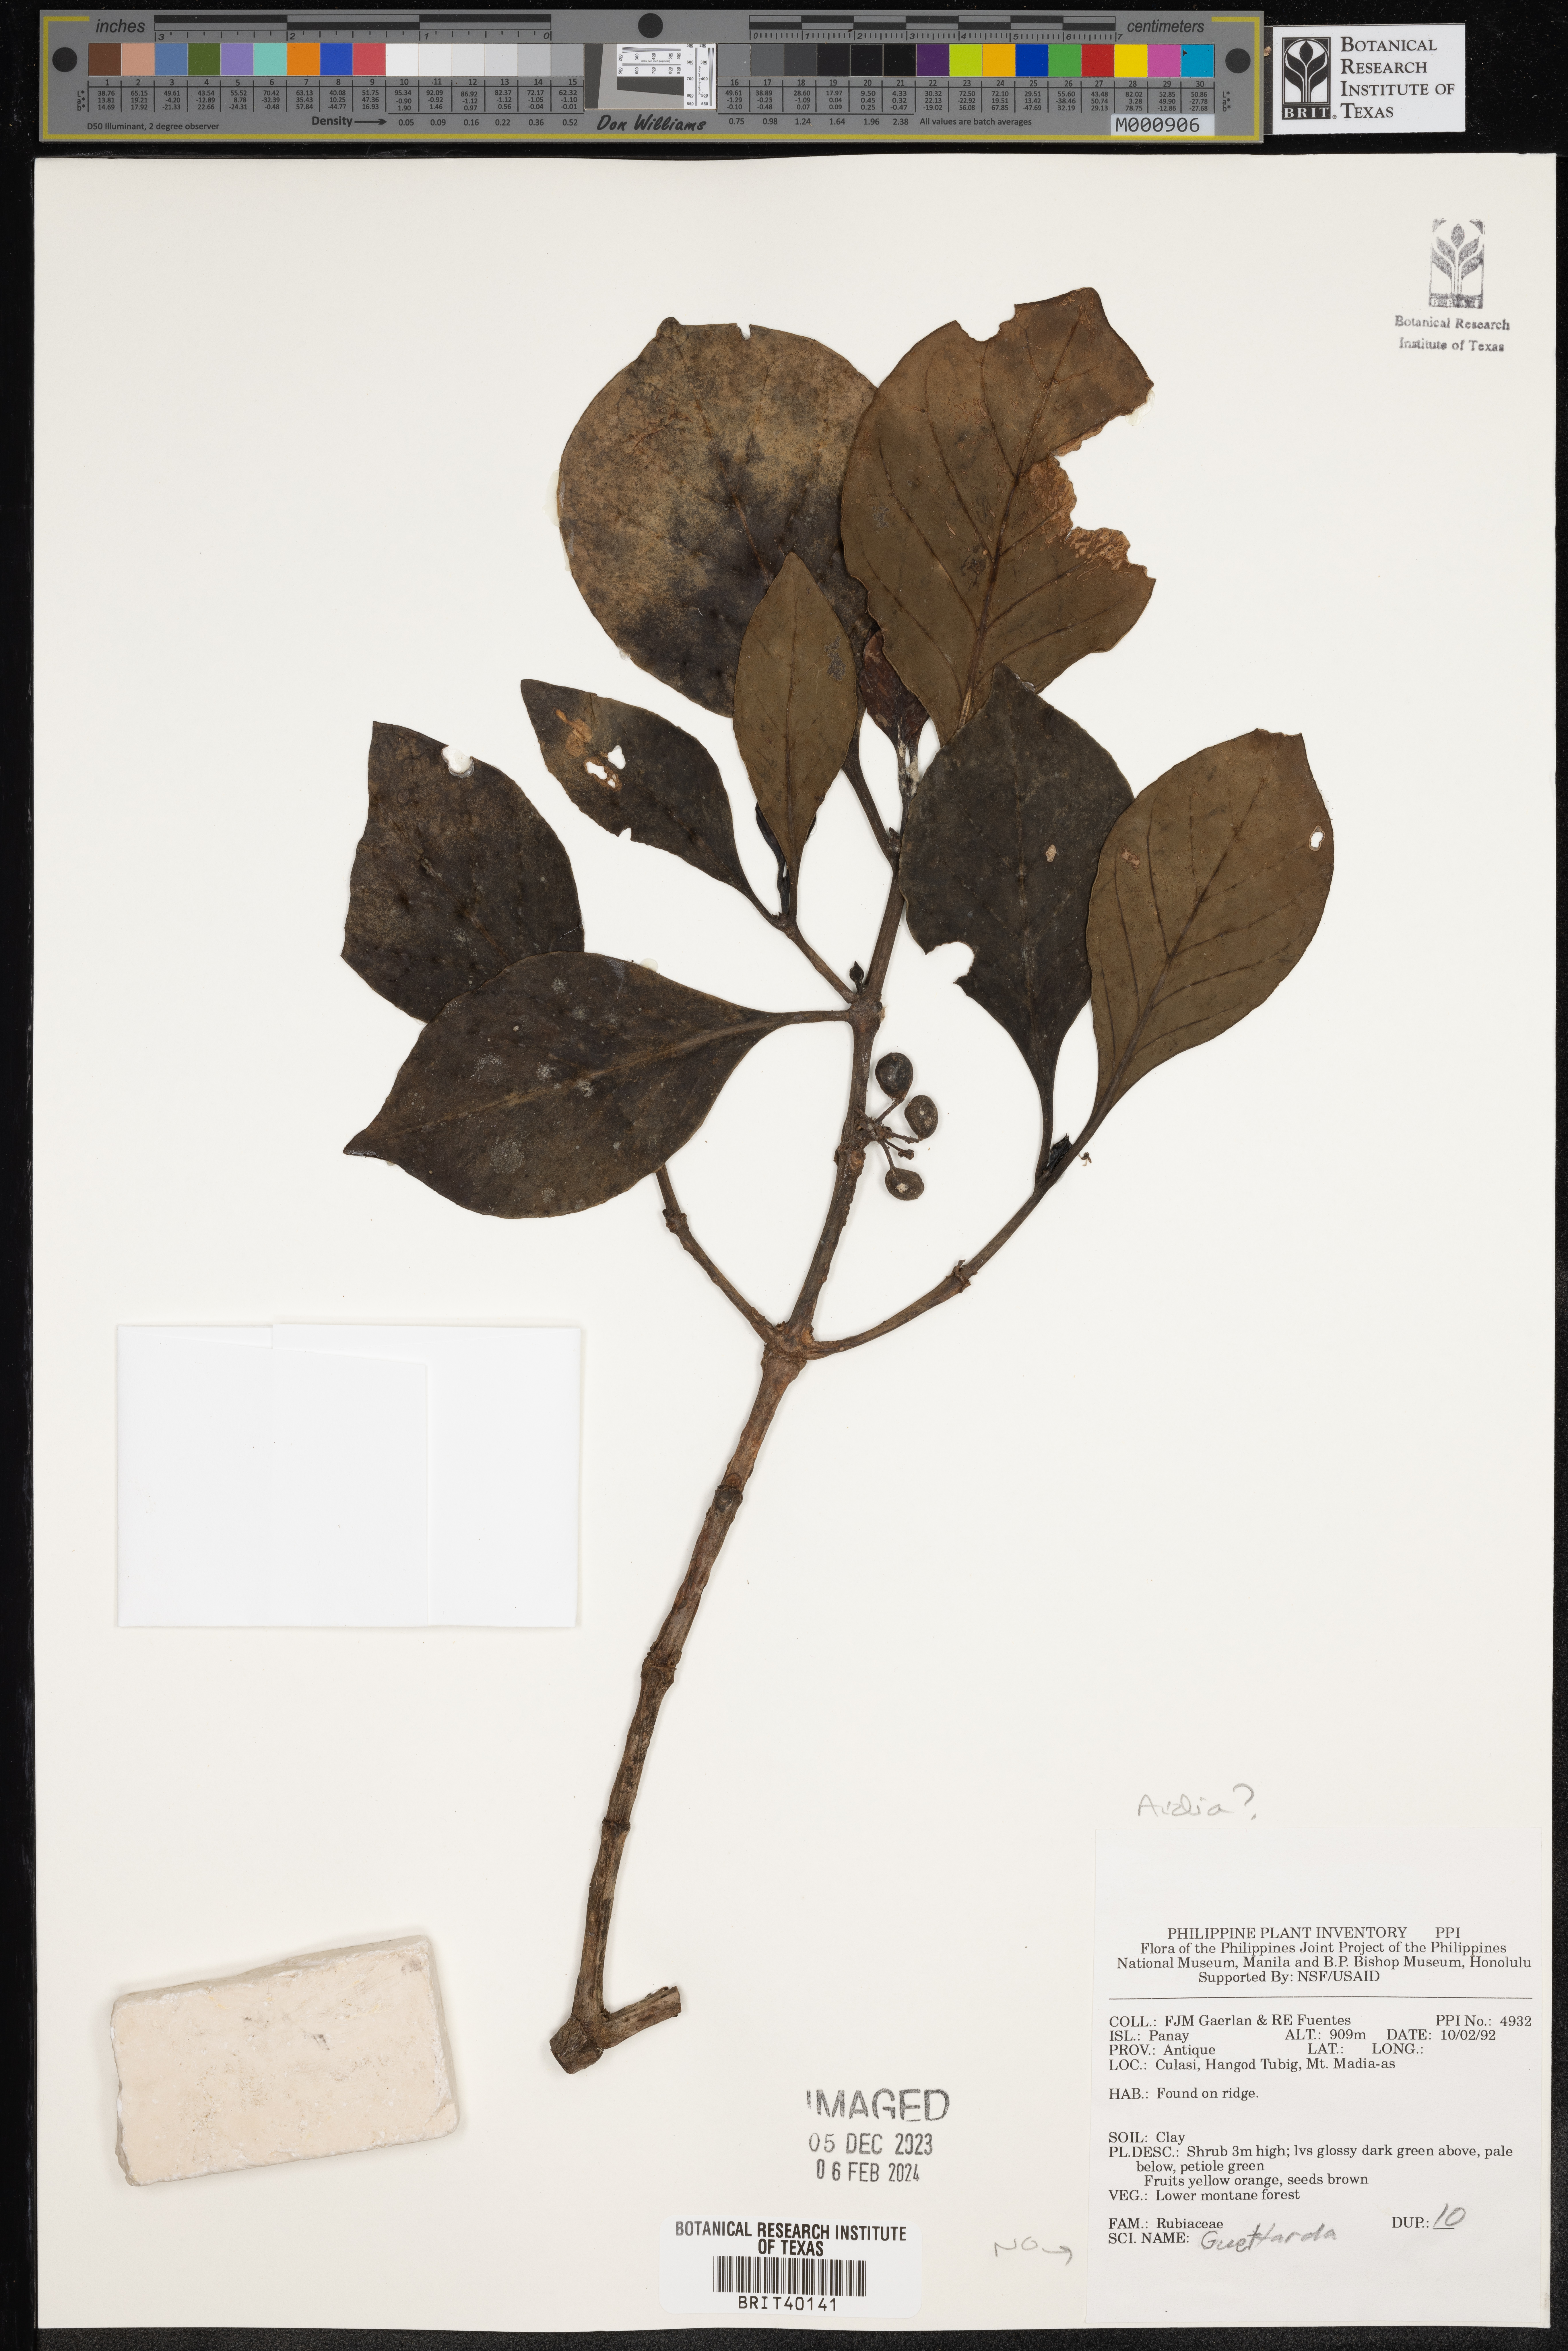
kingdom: Plantae
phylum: Tracheophyta
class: Magnoliopsida
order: Gentianales
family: Rubiaceae
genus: Aidia
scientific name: Aidia
